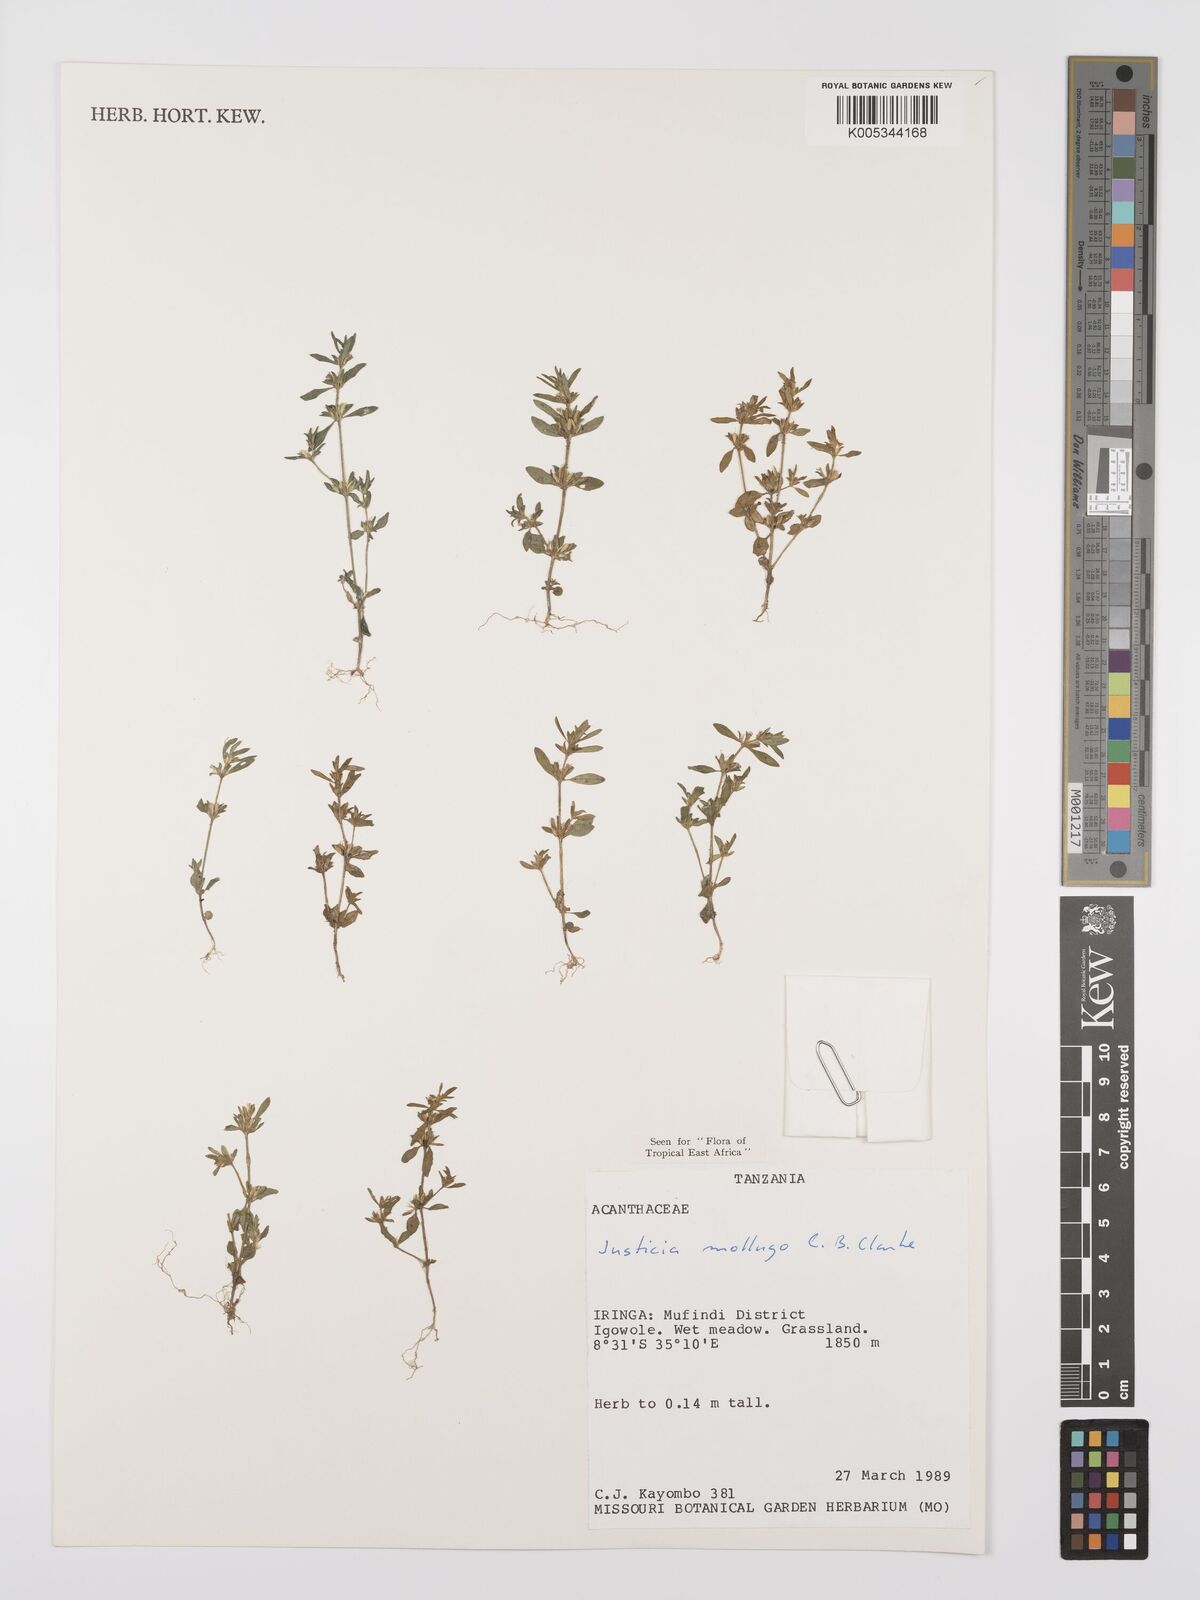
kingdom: Plantae
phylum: Tracheophyta
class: Magnoliopsida
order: Lamiales
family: Acanthaceae
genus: Justicia
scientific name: Justicia mollugo
